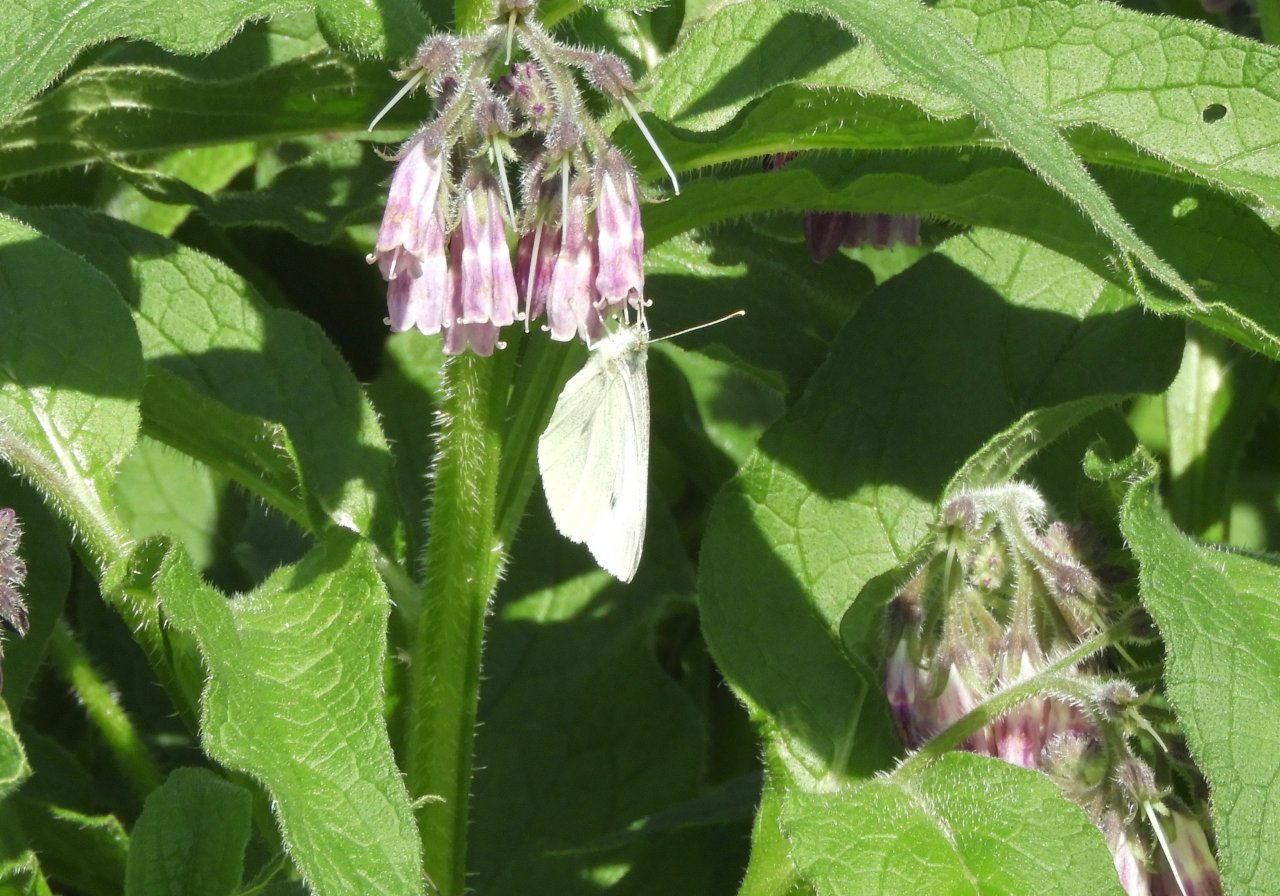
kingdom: Animalia
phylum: Arthropoda
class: Insecta
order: Lepidoptera
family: Pieridae
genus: Pieris
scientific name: Pieris rapae
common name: Cabbage White
